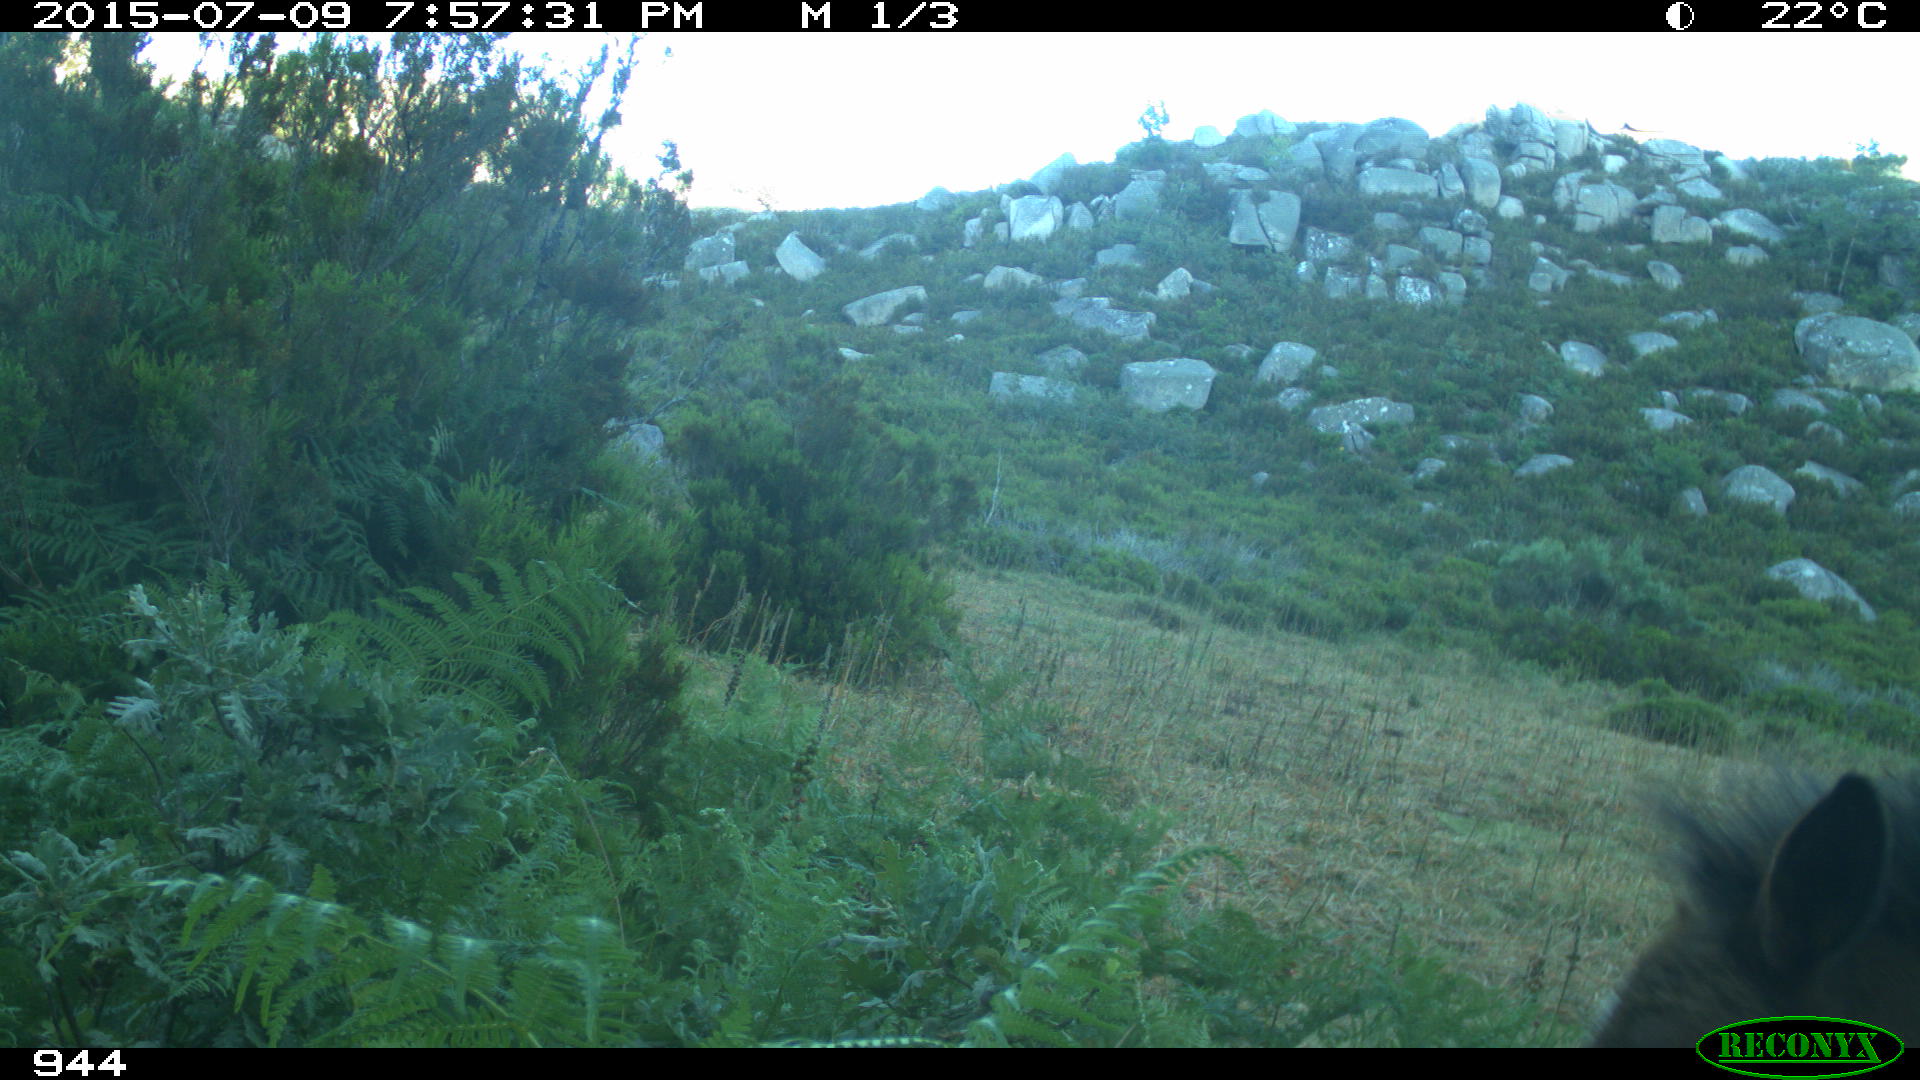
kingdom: Animalia
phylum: Chordata
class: Mammalia
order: Perissodactyla
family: Equidae
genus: Equus
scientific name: Equus caballus
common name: Horse
